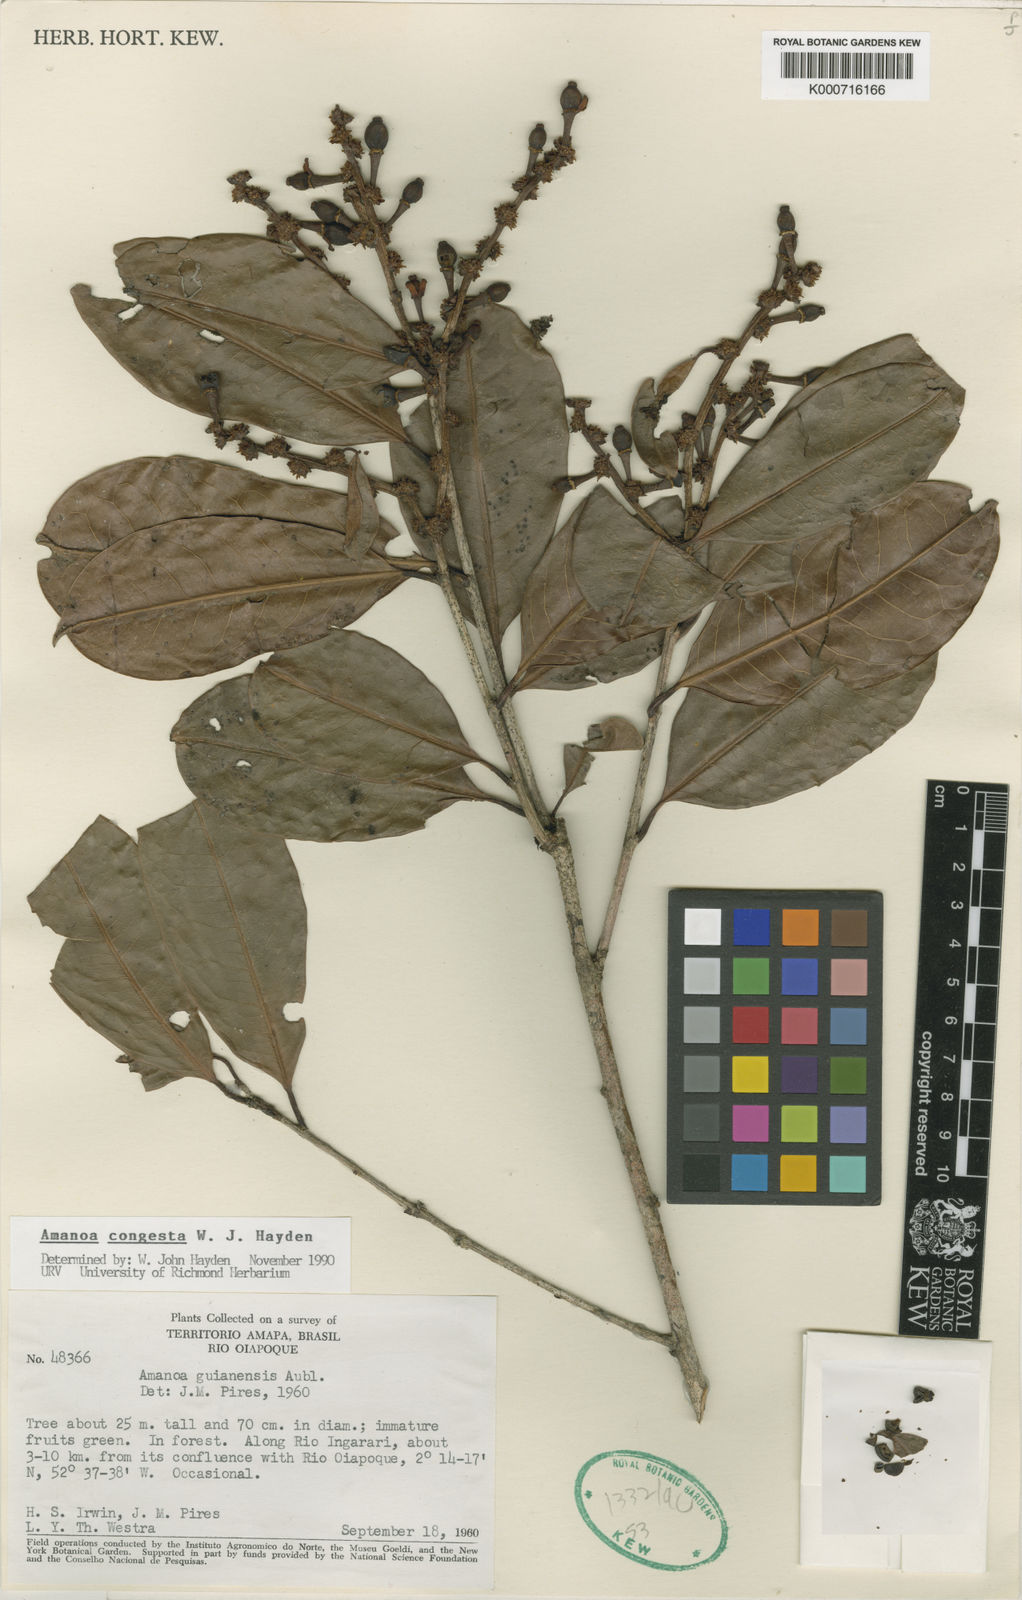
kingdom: Plantae
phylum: Tracheophyta
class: Magnoliopsida
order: Malpighiales
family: Phyllanthaceae
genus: Amanoa
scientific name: Amanoa congesta
